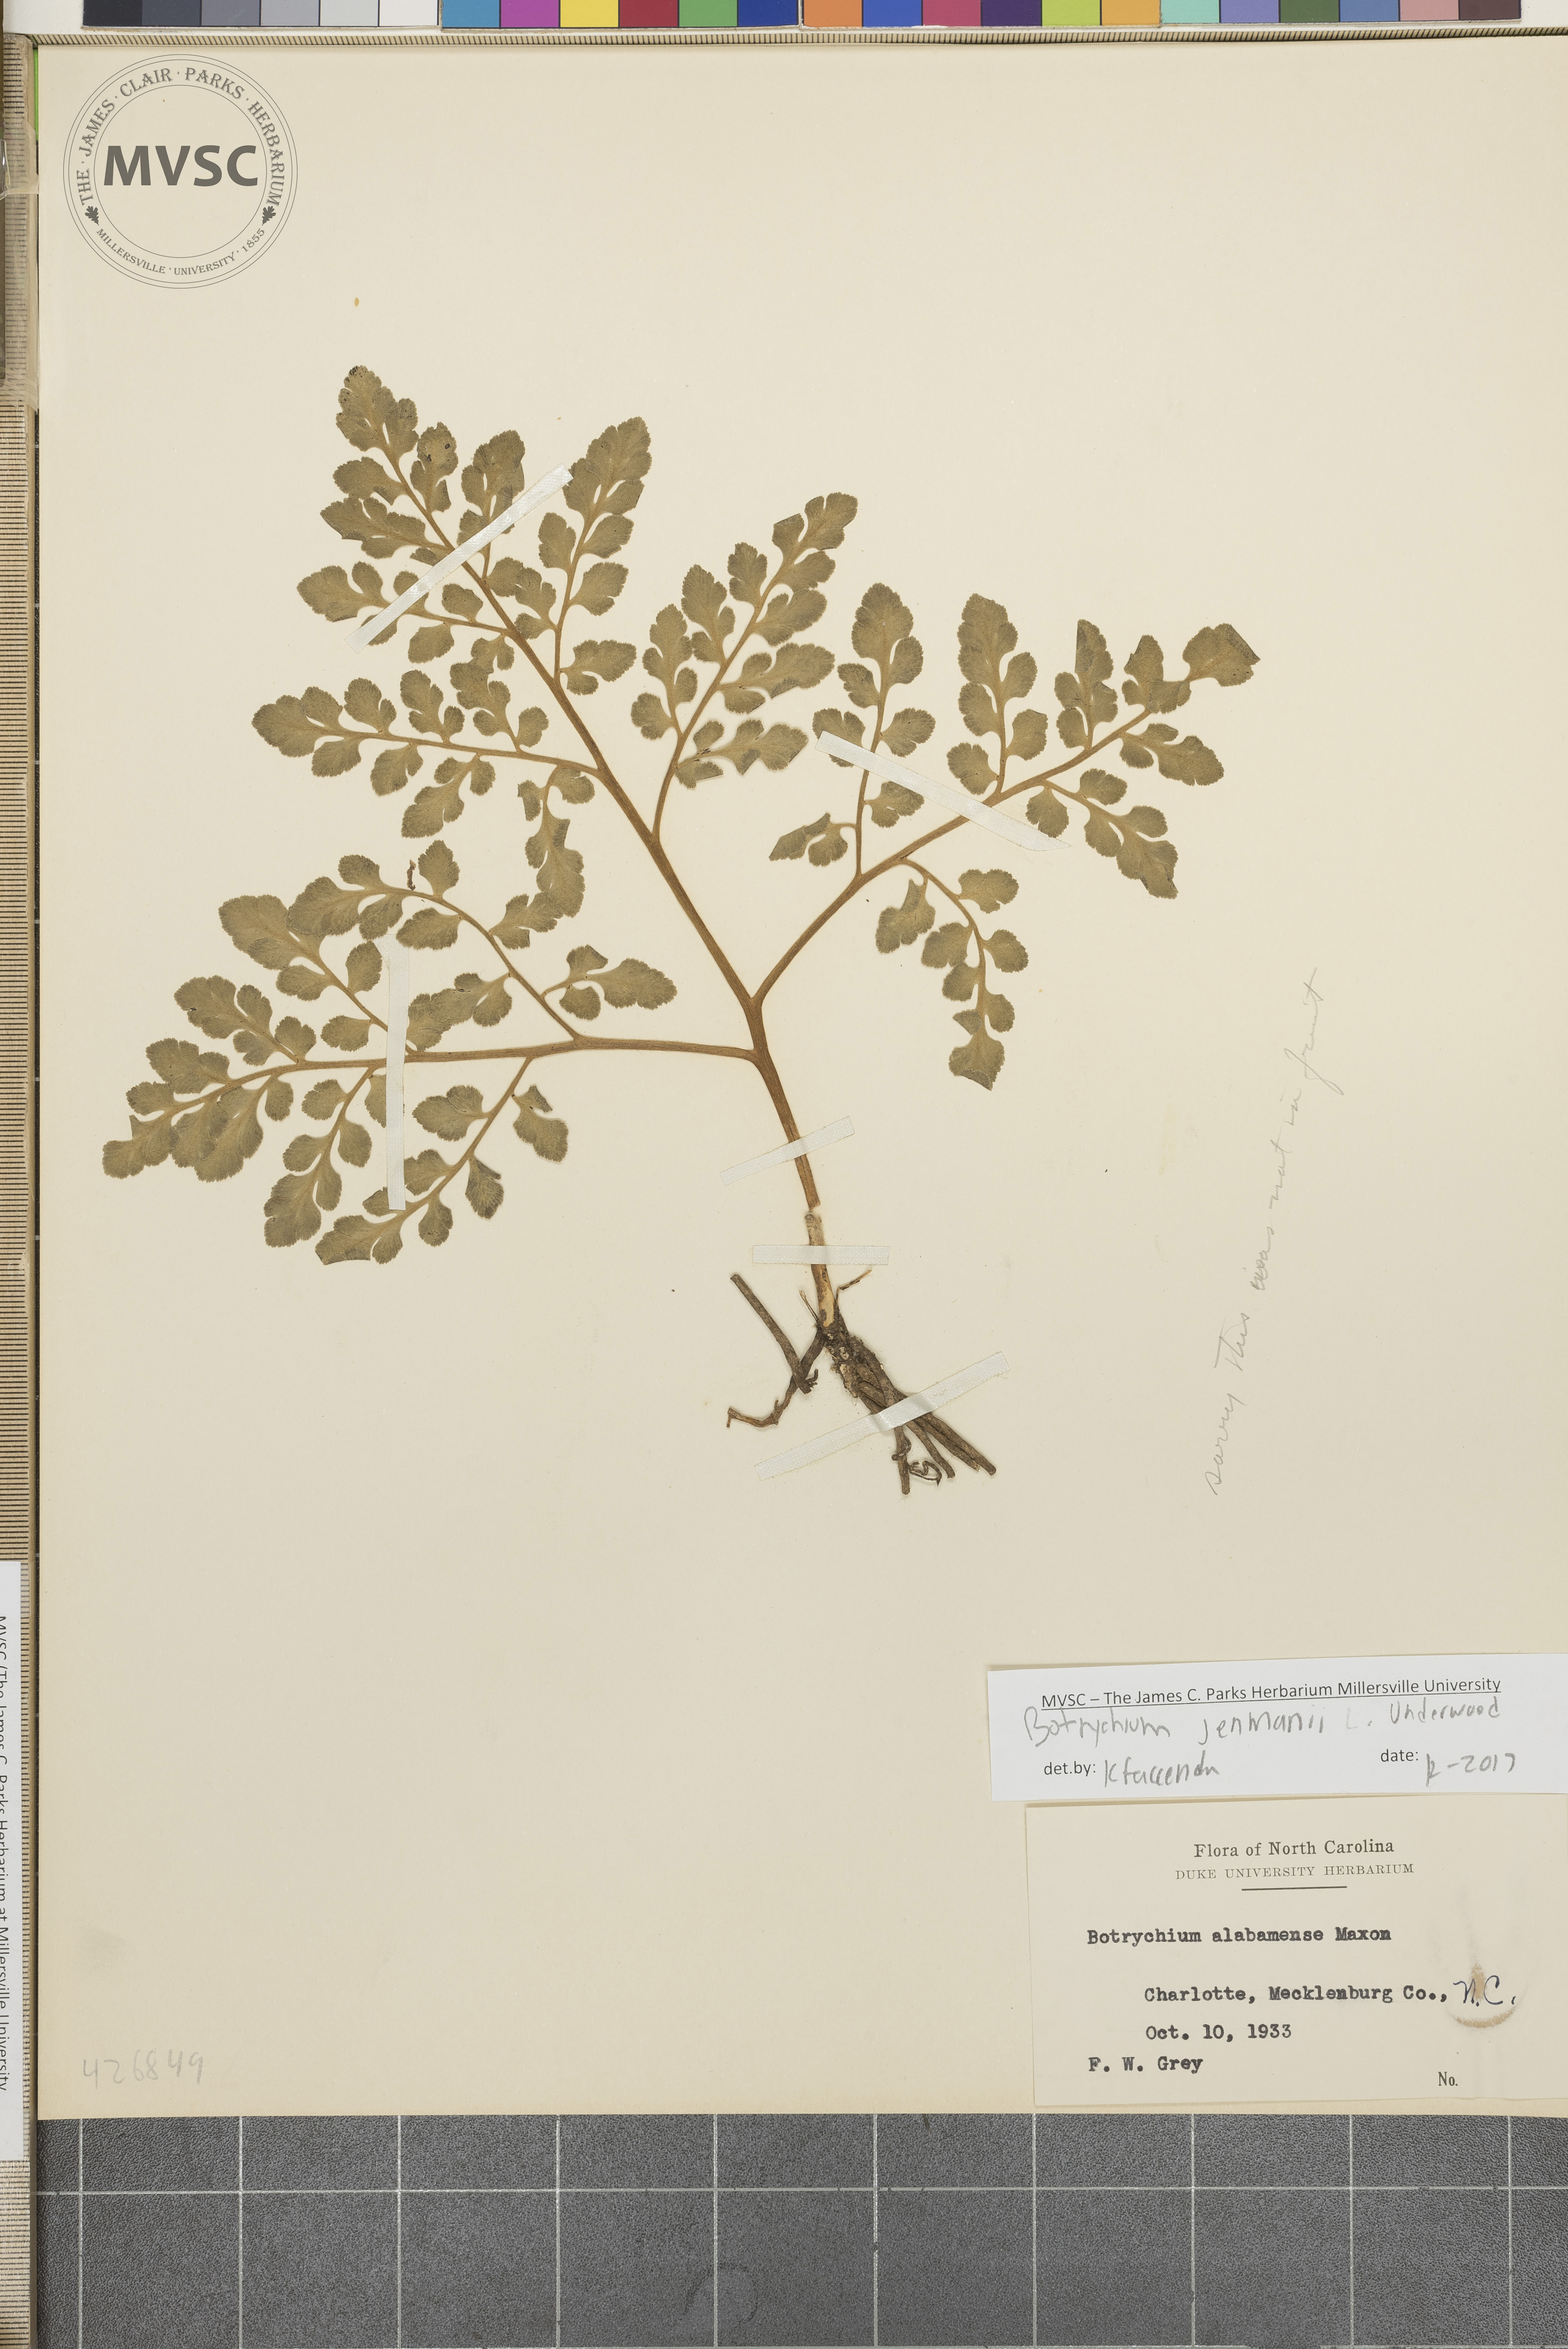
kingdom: Plantae
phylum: Tracheophyta
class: Polypodiopsida
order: Ophioglossales
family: Ophioglossaceae
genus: Sceptridium
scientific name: Sceptridium jenmanii
